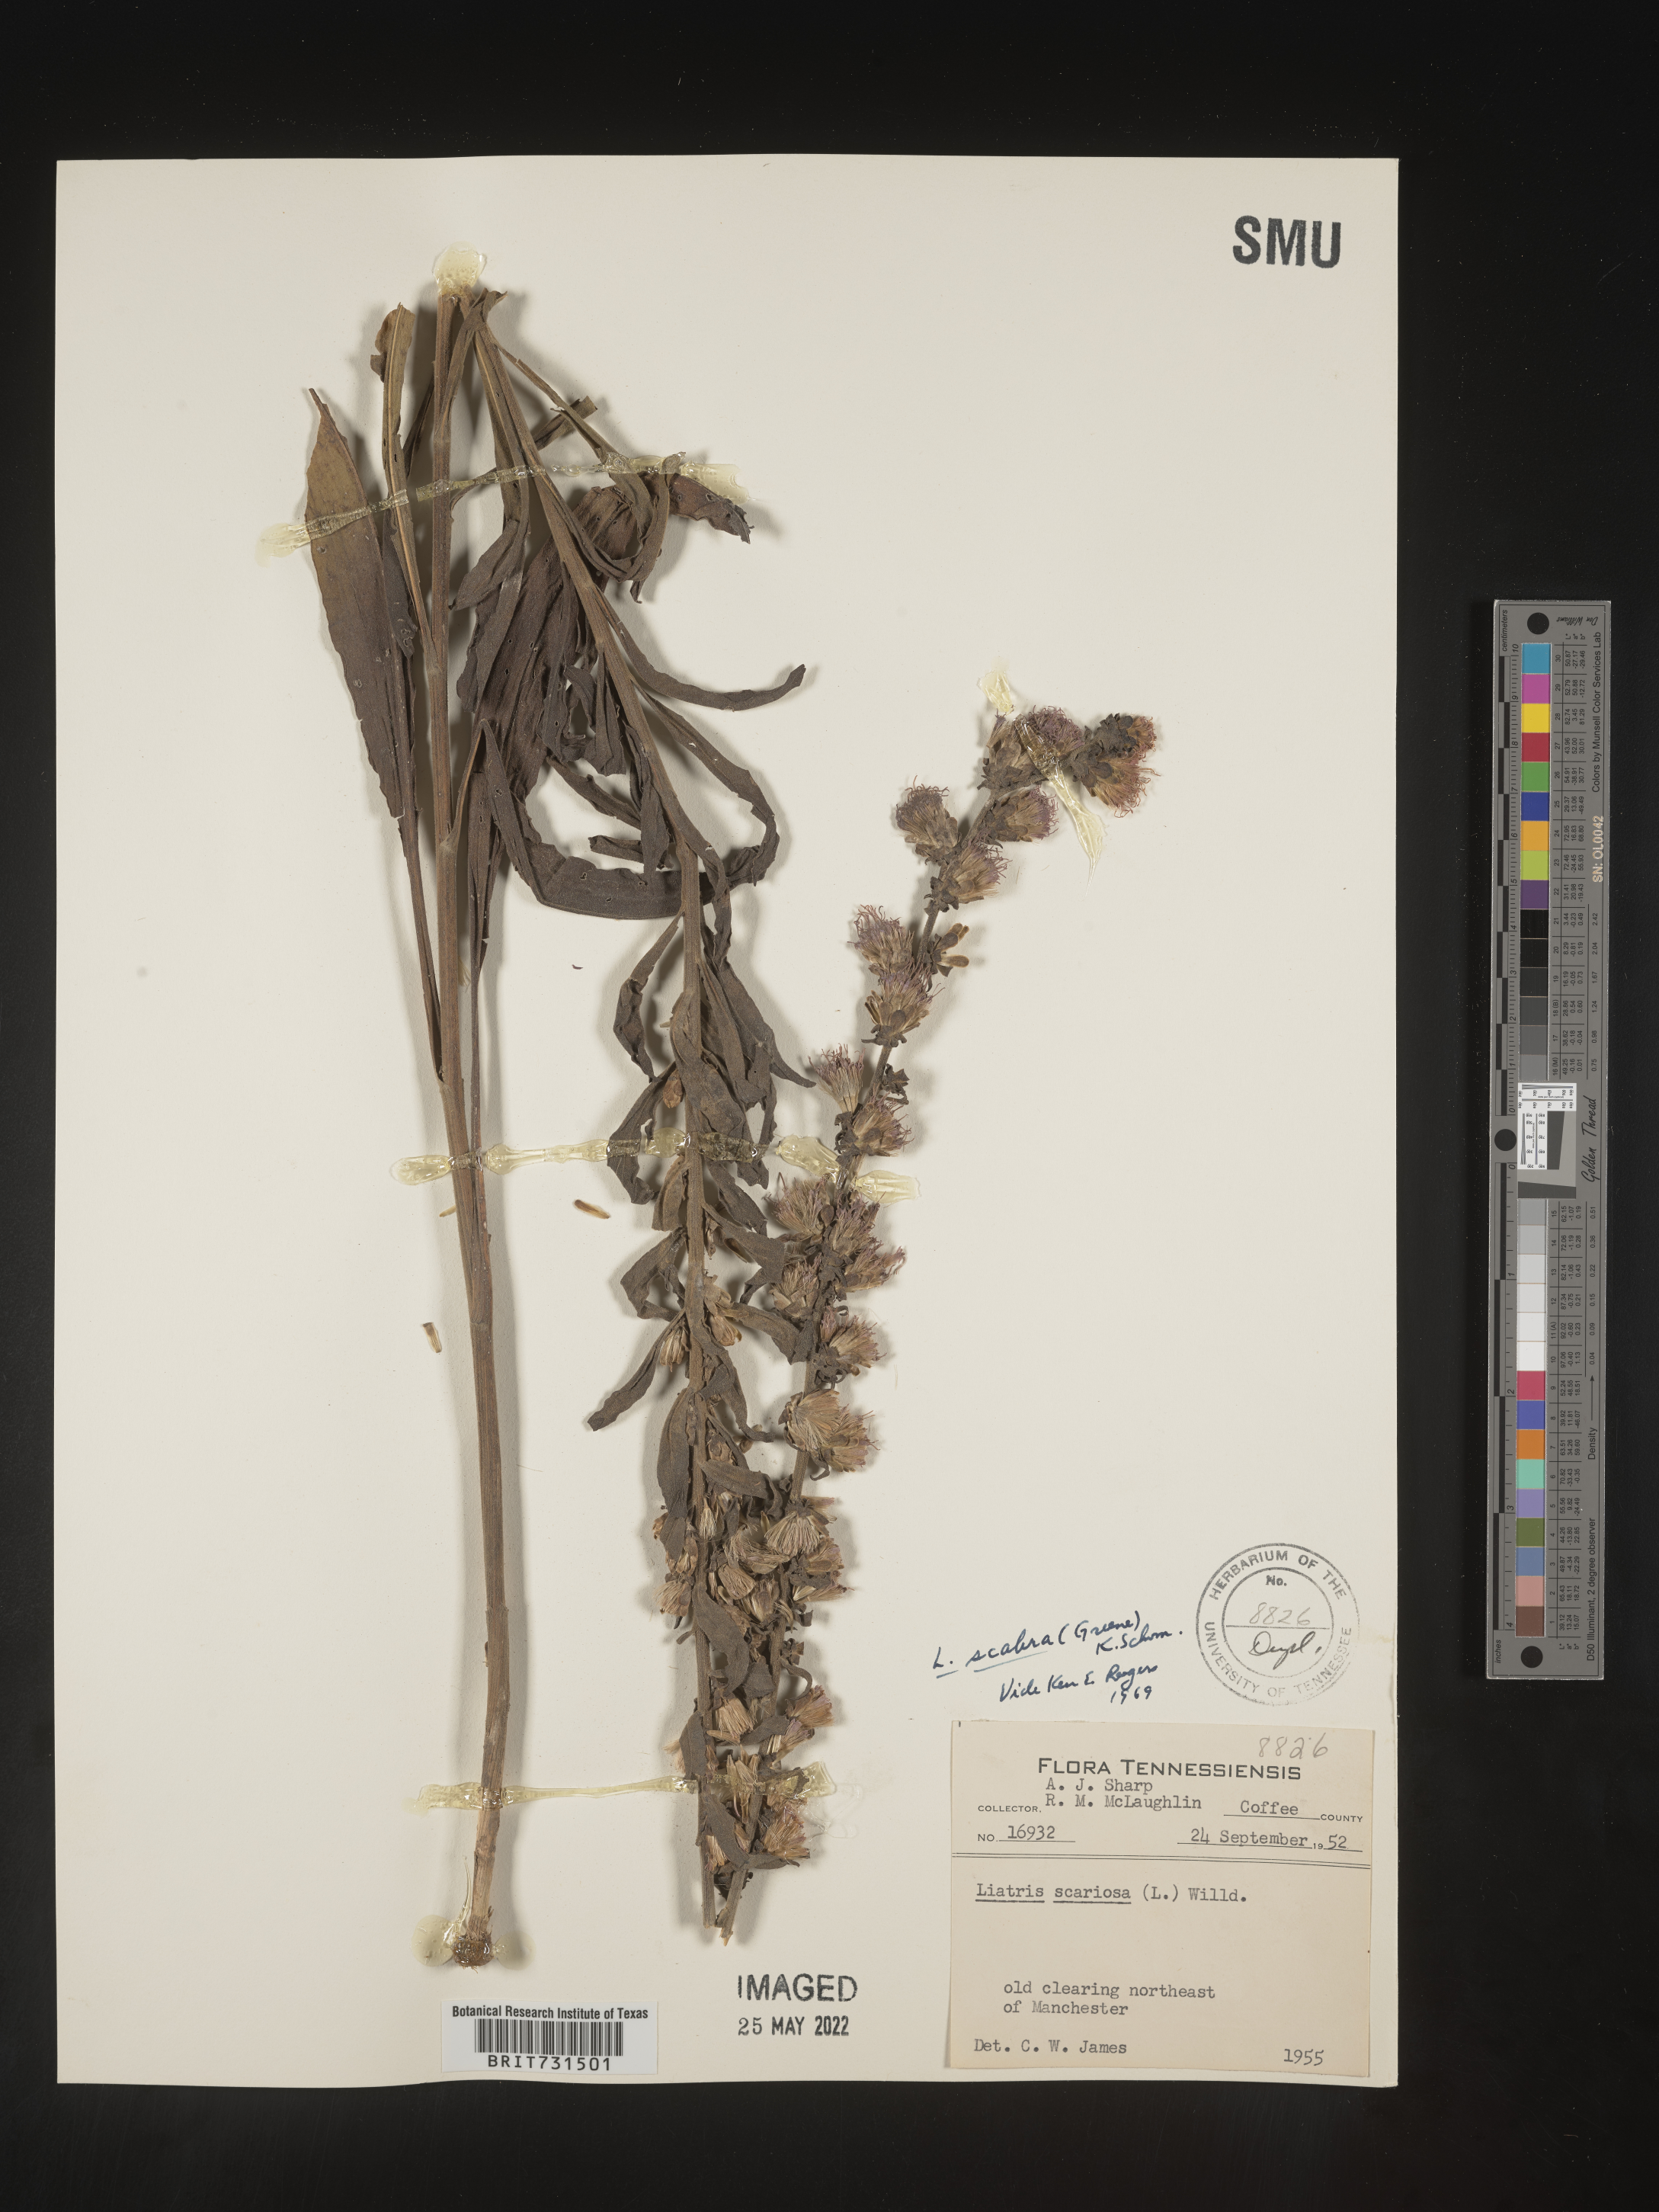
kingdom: Plantae
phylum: Tracheophyta
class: Magnoliopsida
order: Asterales
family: Asteraceae
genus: Liatris
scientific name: Liatris squarrulosa
